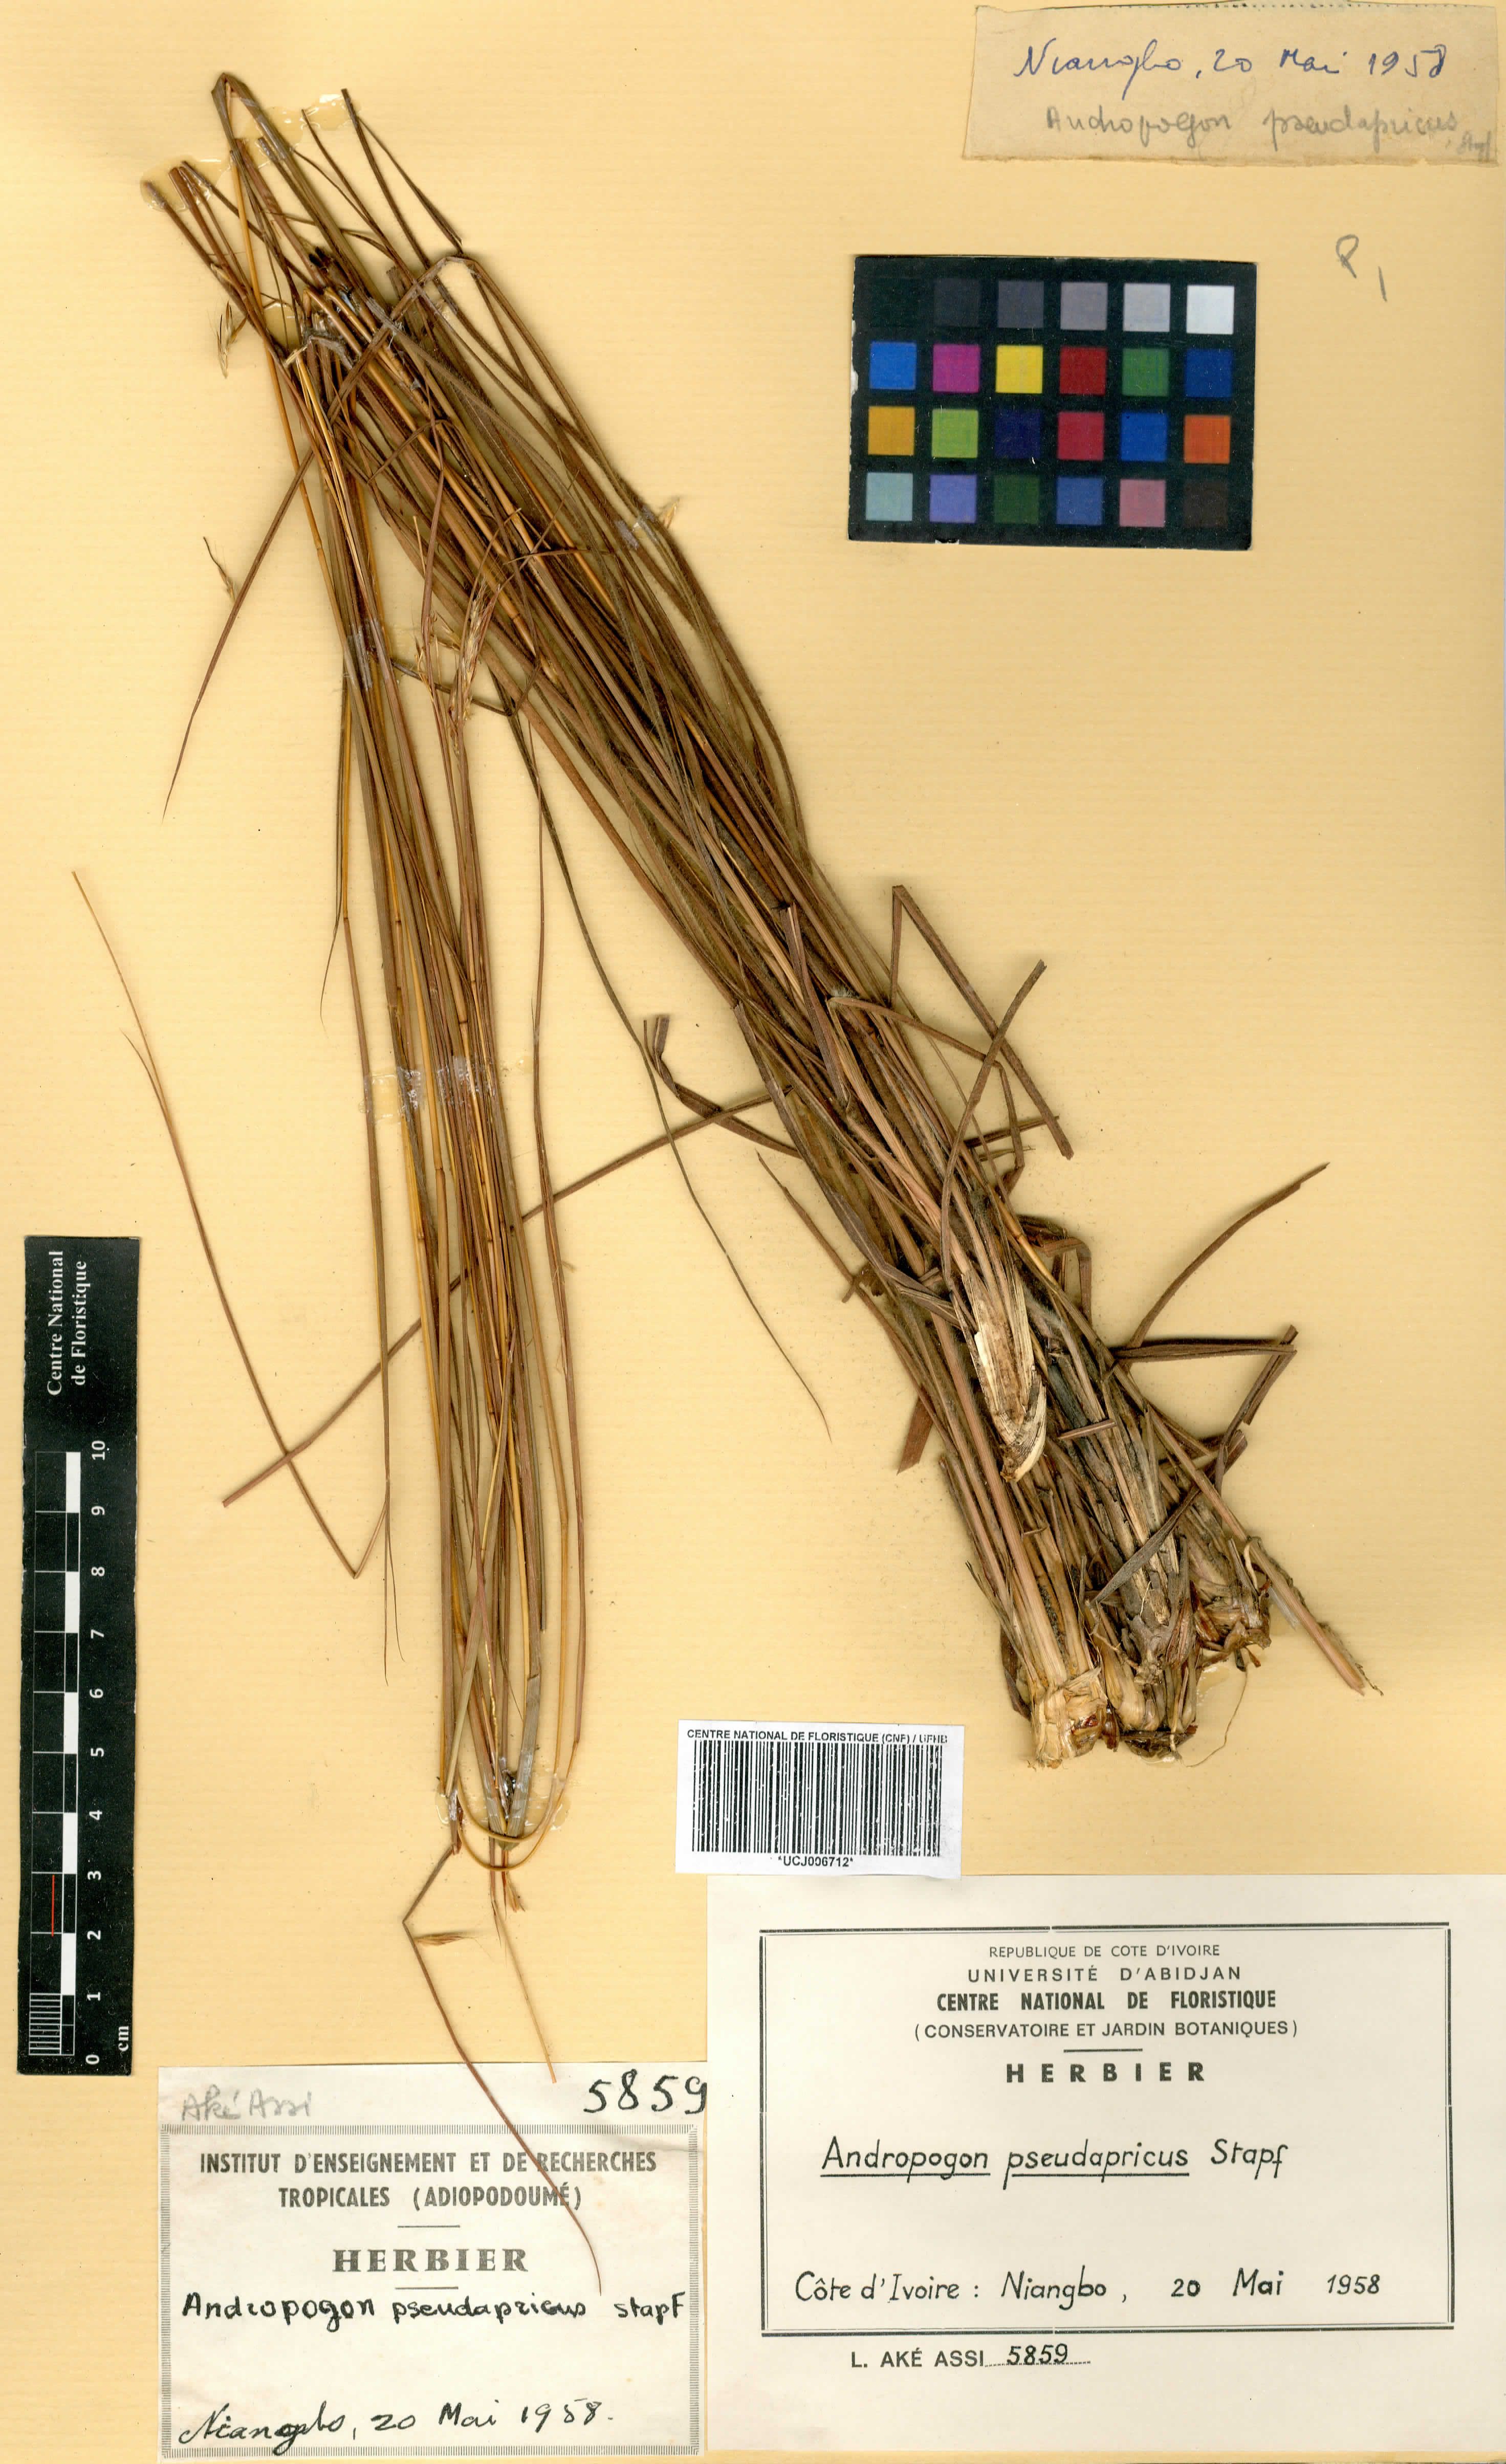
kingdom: Plantae
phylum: Tracheophyta
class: Liliopsida
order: Poales
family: Poaceae
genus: Andropogon
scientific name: Andropogon pseudapricus
